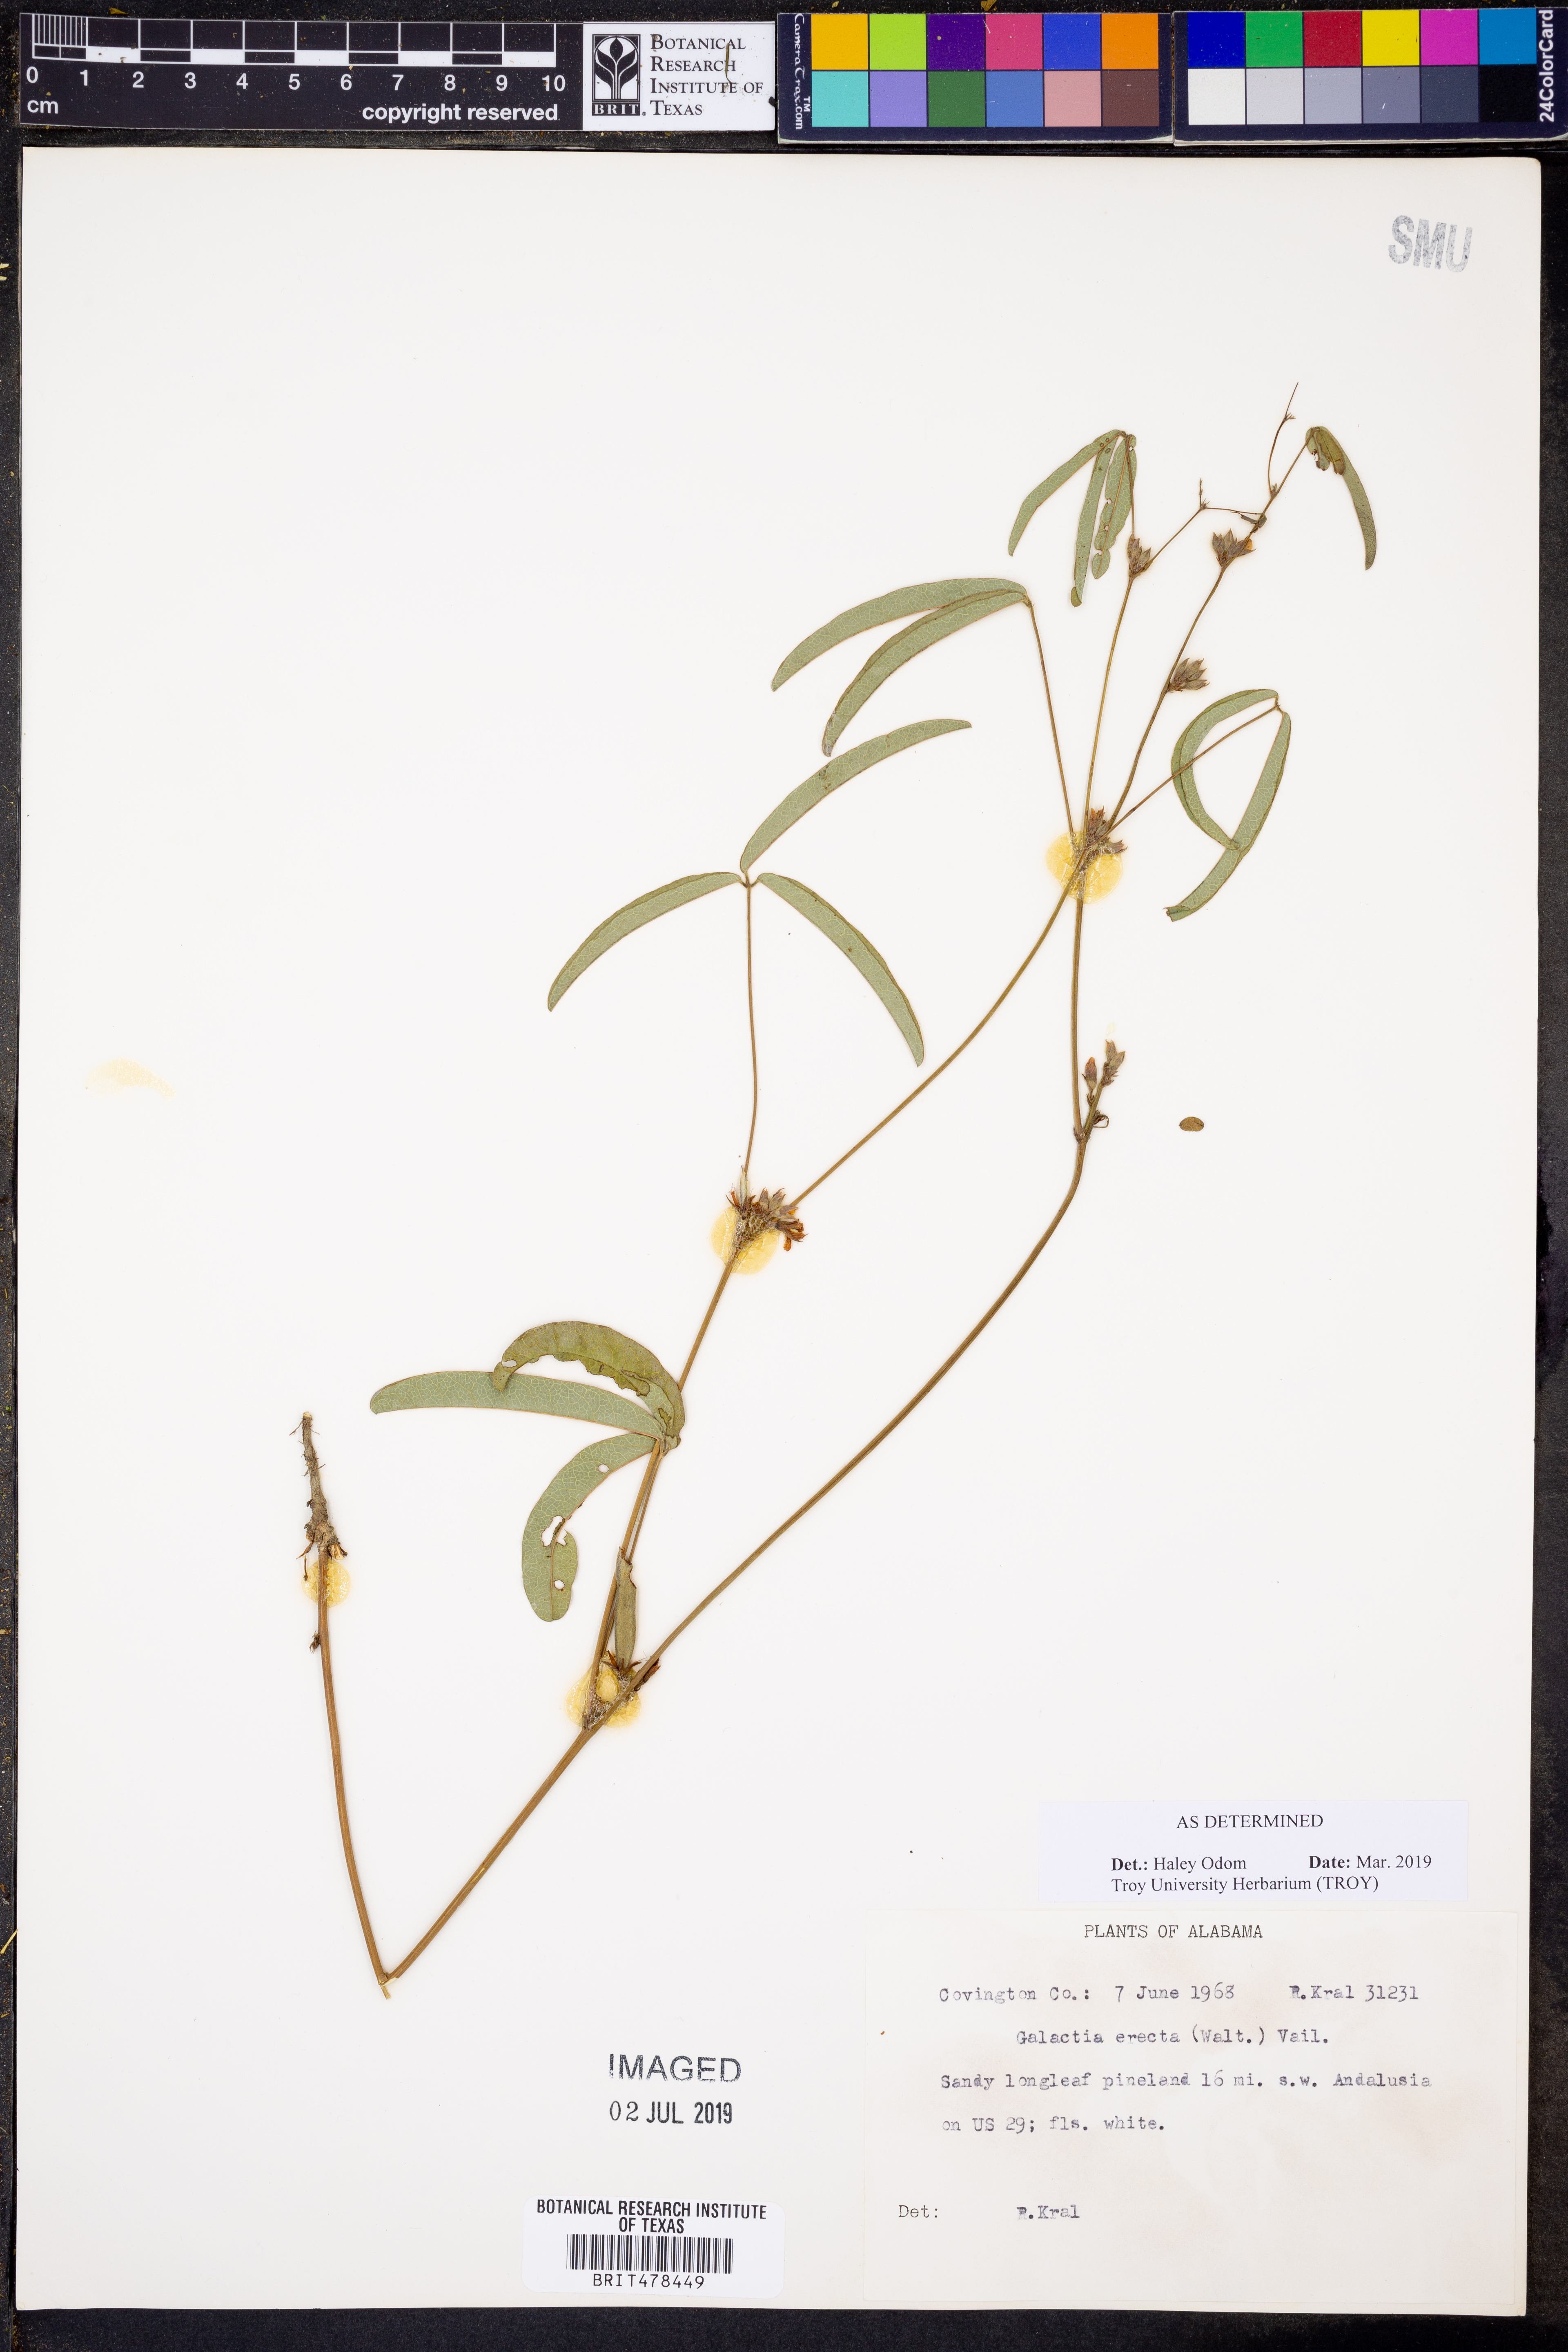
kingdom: Plantae
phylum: Tracheophyta
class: Magnoliopsida
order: Fabales
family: Fabaceae
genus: Galactia
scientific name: Galactia erecta
